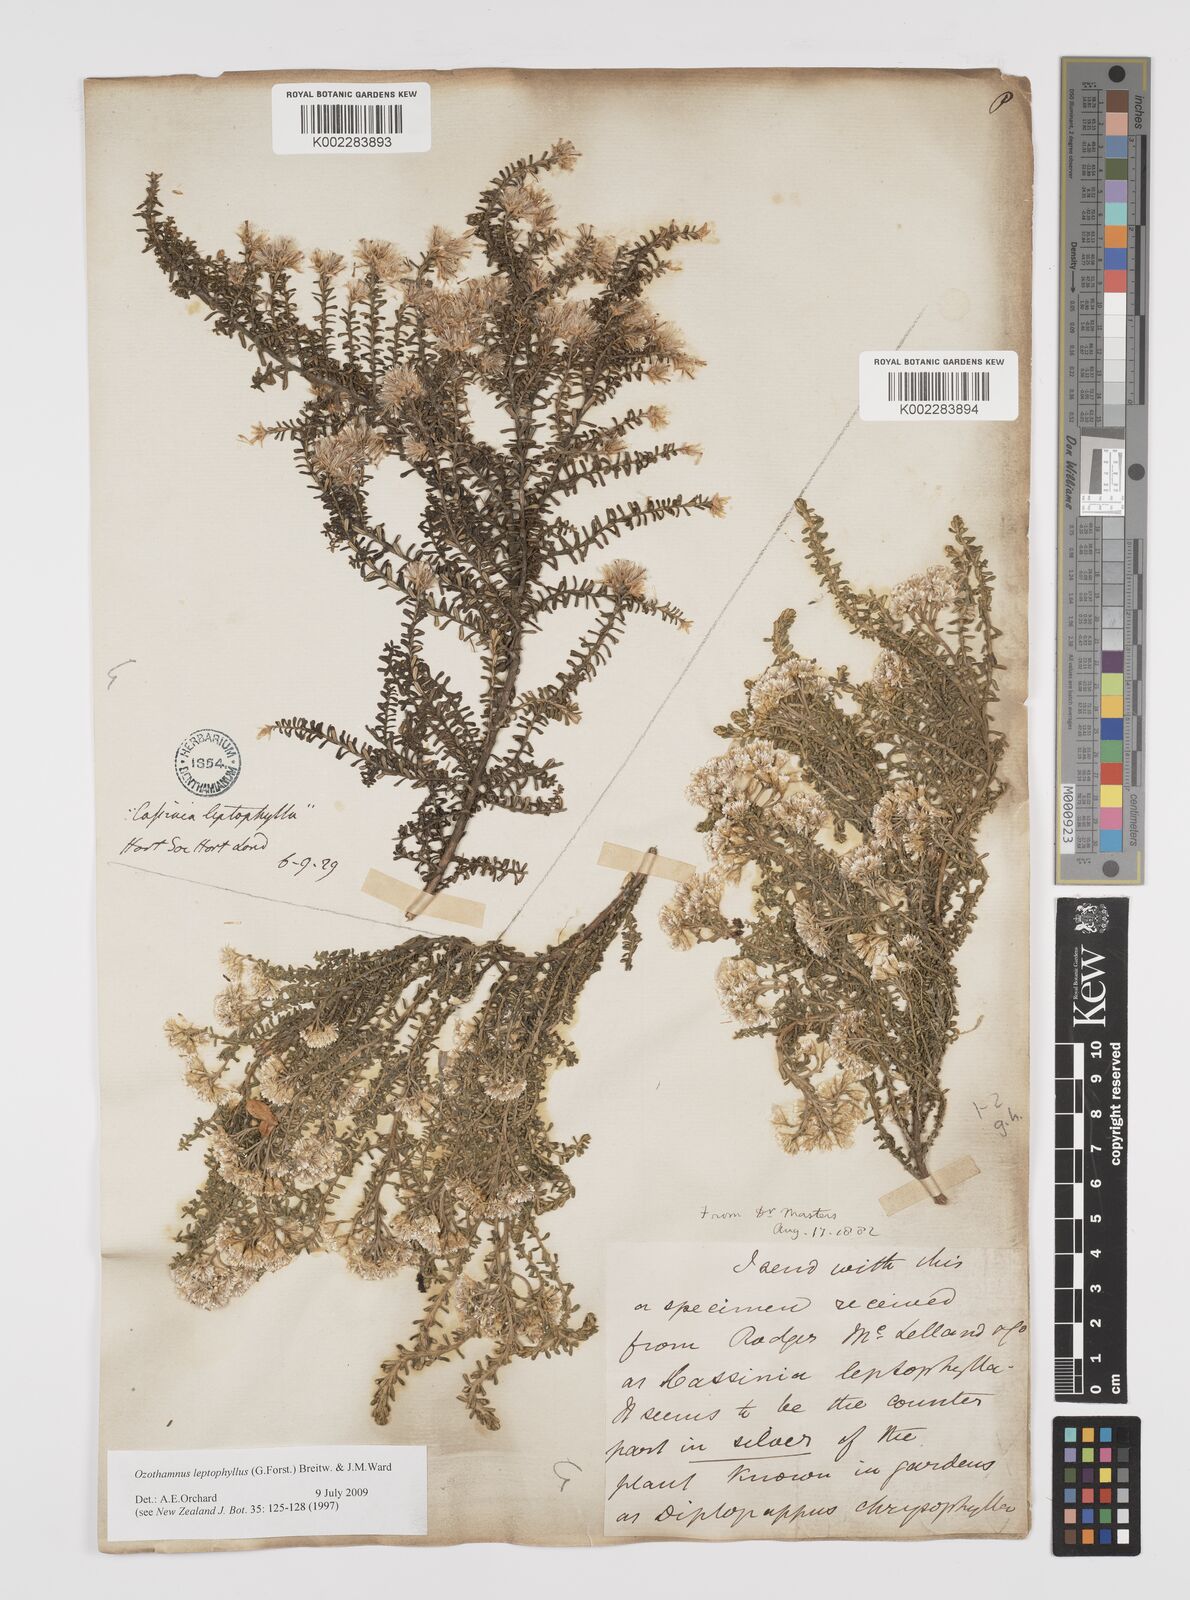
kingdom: Plantae
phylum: Tracheophyta
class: Magnoliopsida
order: Asterales
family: Asteraceae
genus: Ozothamnus
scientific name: Ozothamnus leptophyllus
